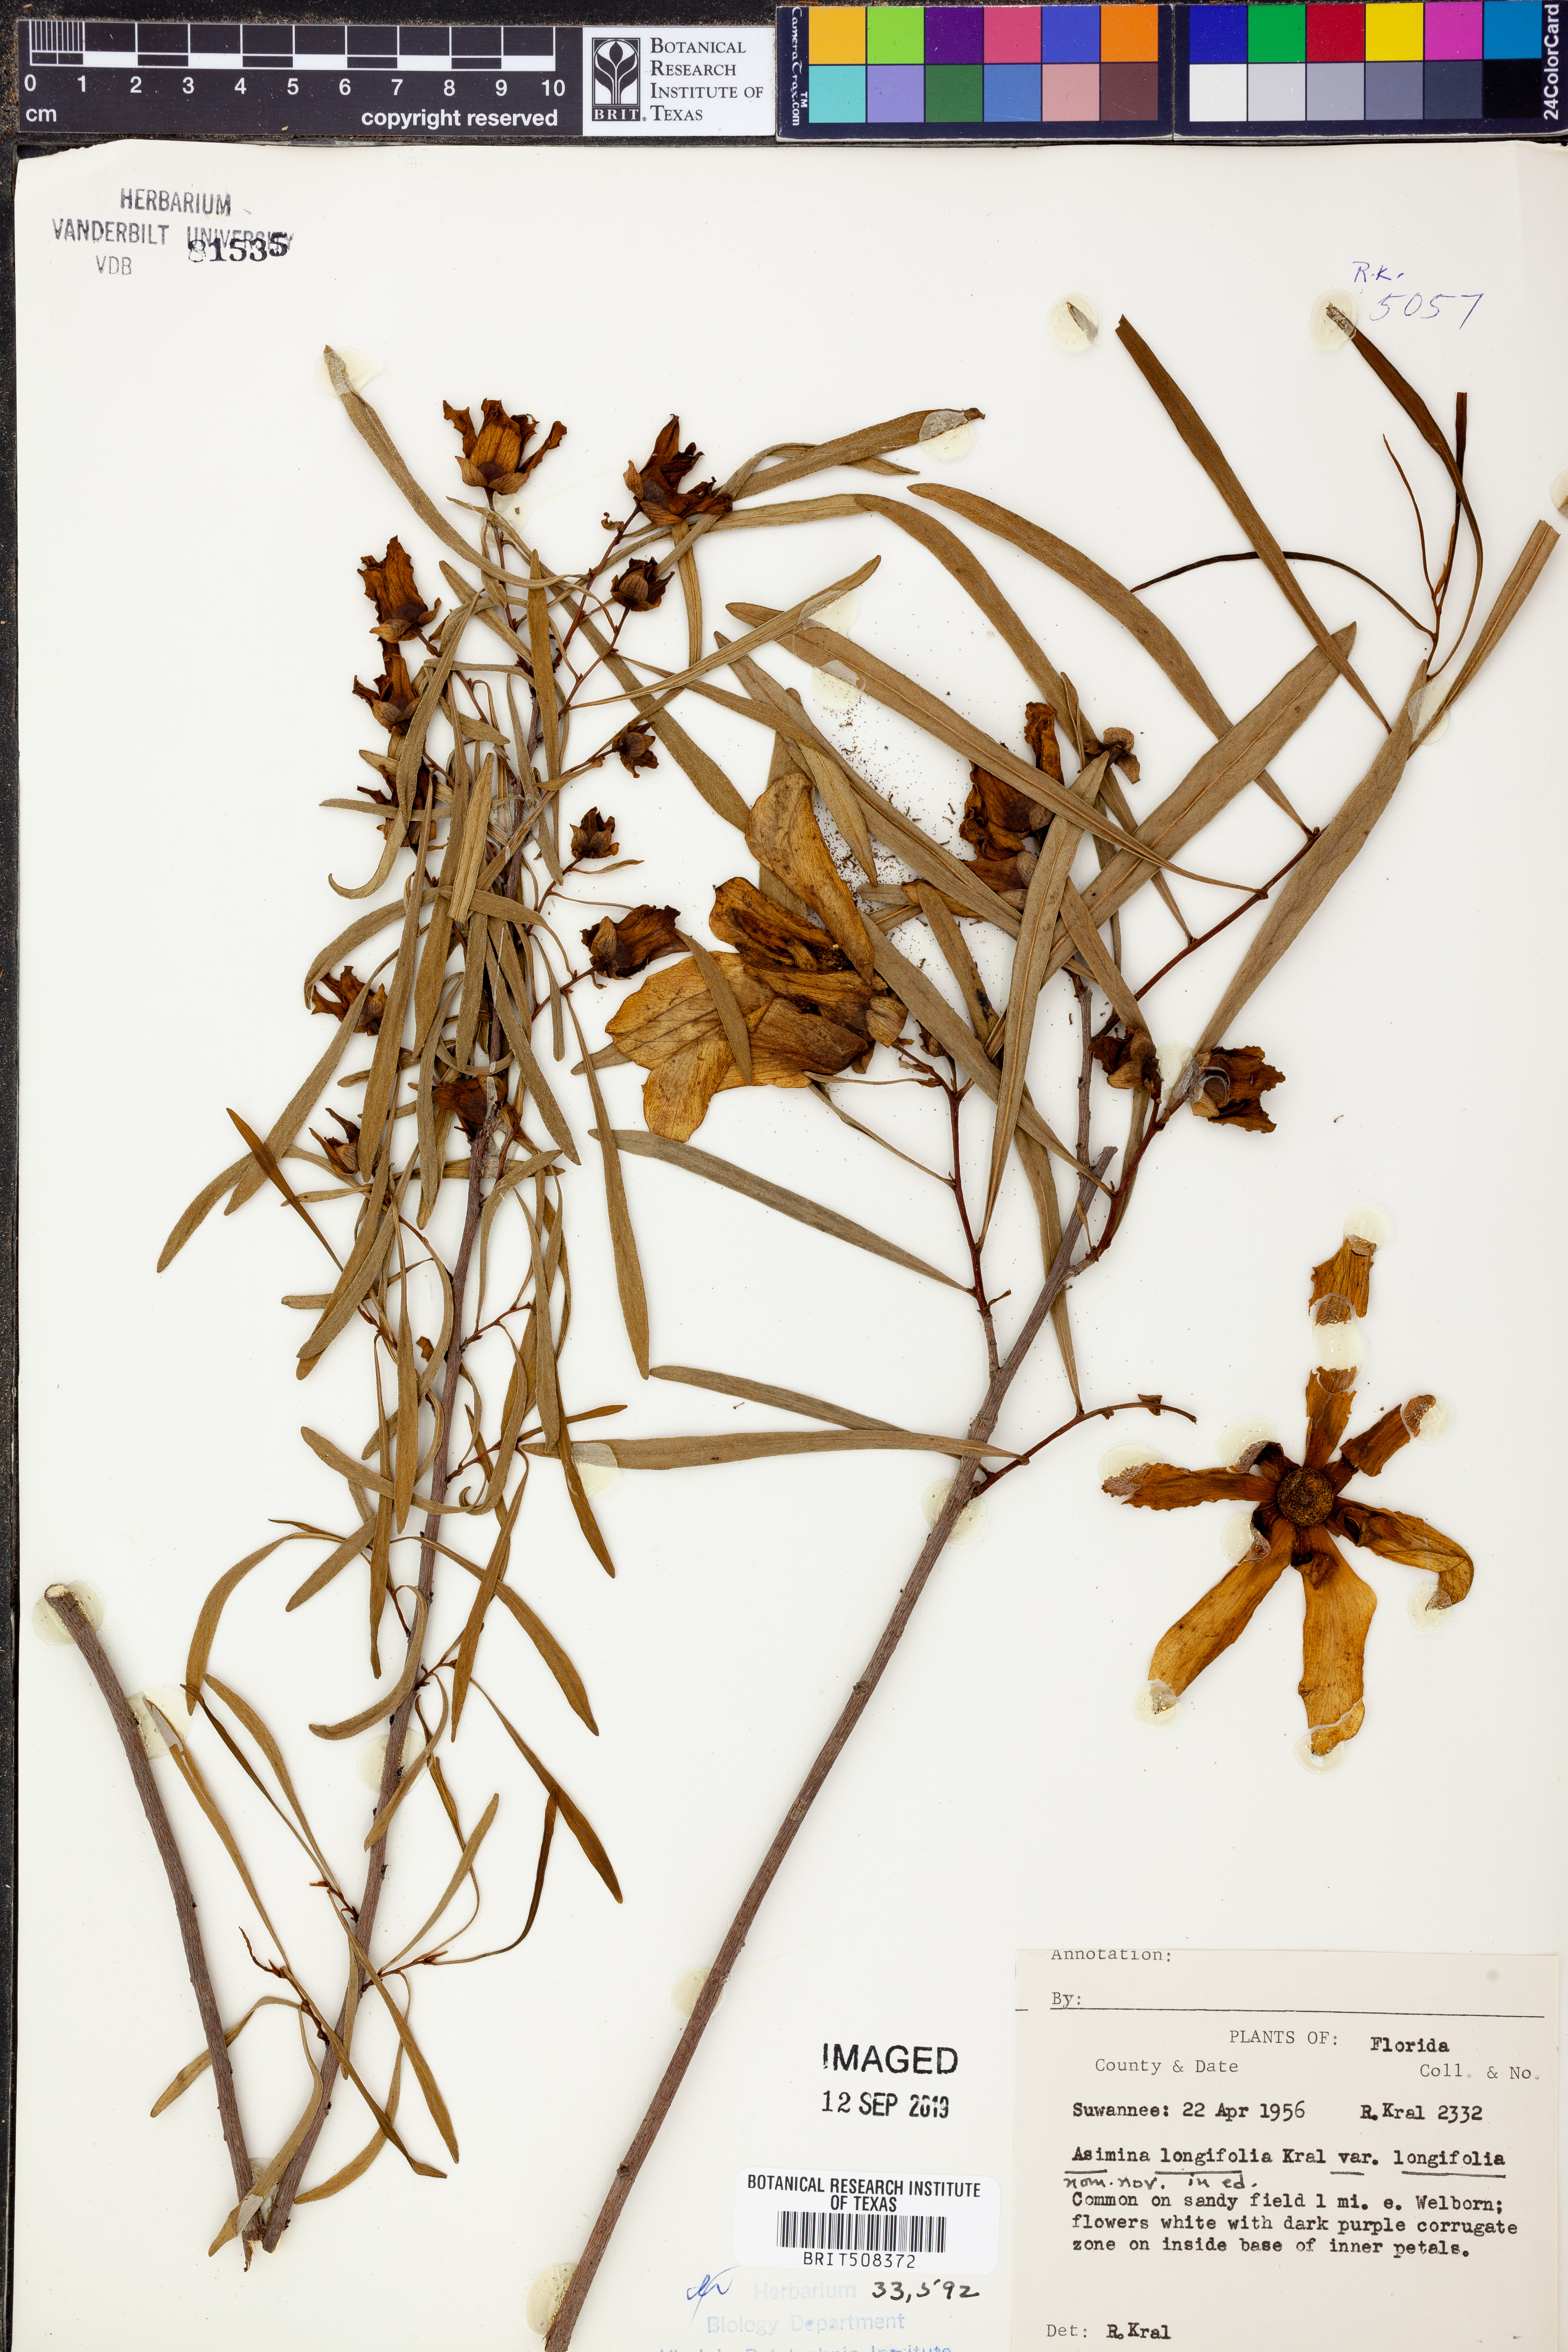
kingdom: Plantae
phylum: Tracheophyta
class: Magnoliopsida
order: Magnoliales
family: Annonaceae
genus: Asimina
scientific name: Asimina longifolia
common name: Polecatbush
